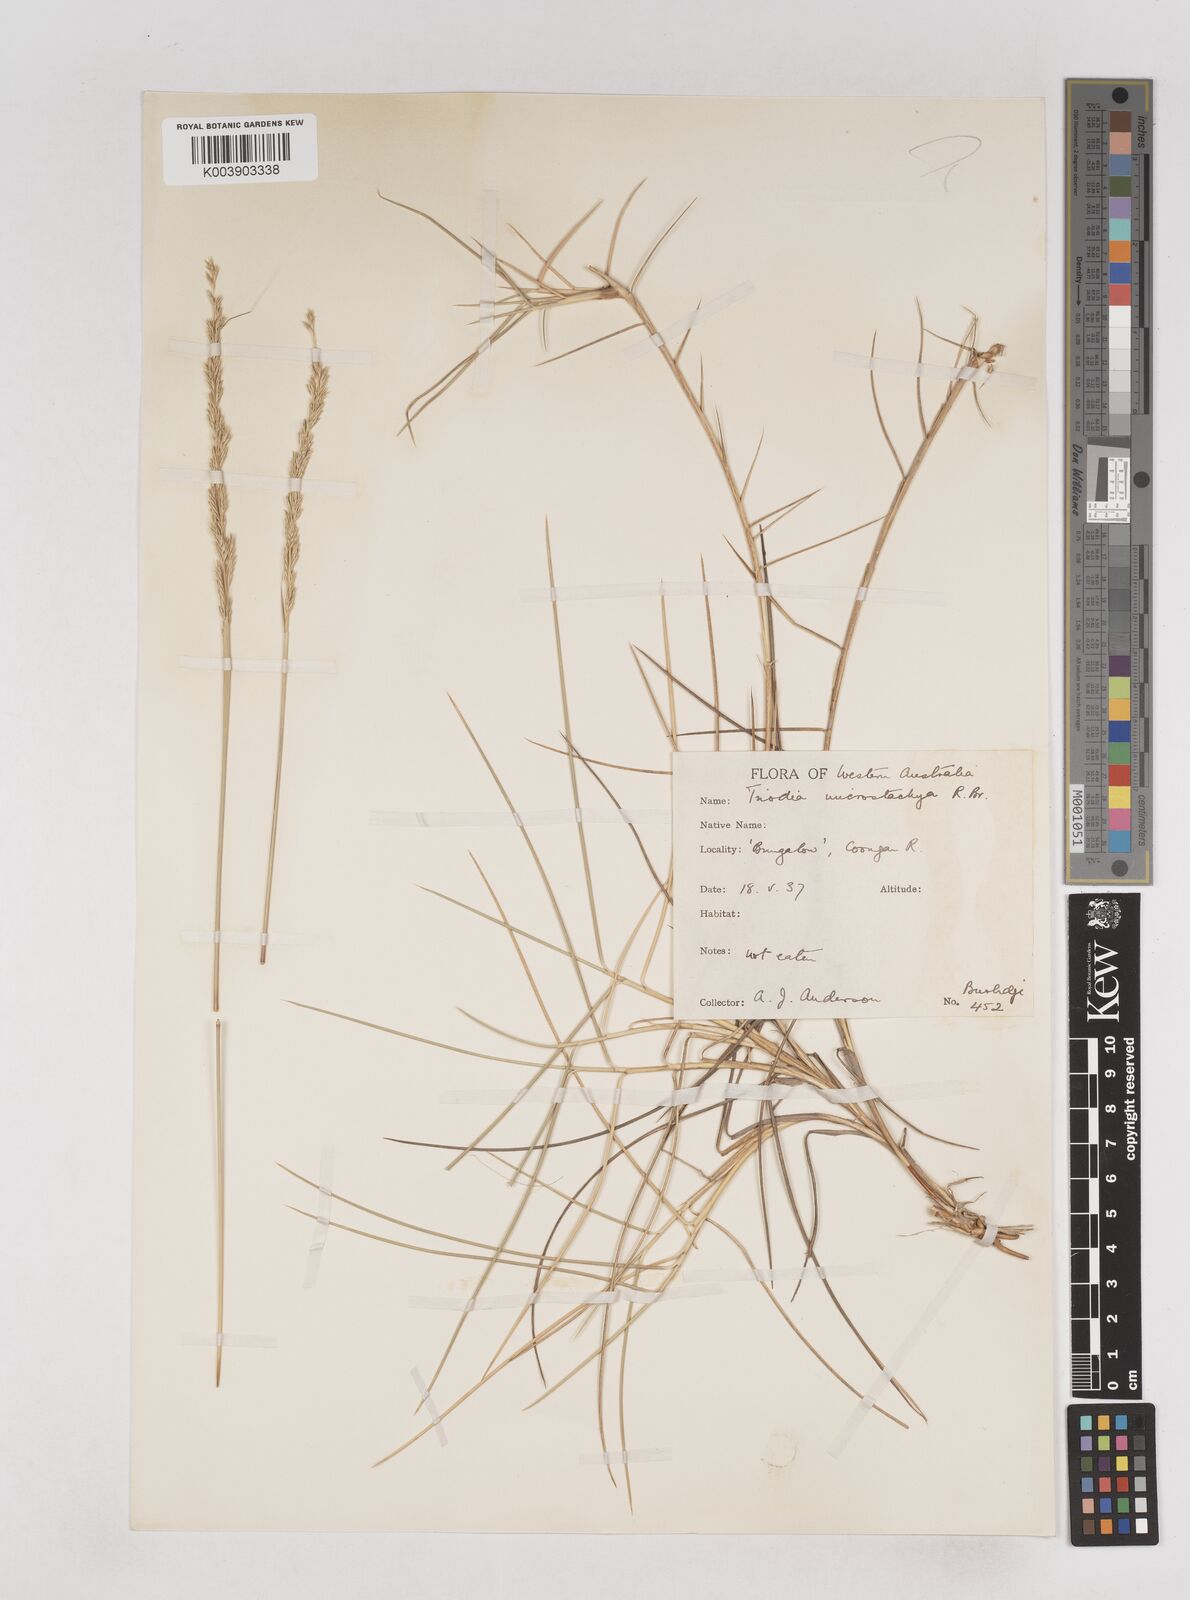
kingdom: Plantae
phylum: Tracheophyta
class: Liliopsida
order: Poales
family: Poaceae
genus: Triodia
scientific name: Triodia microstachya
